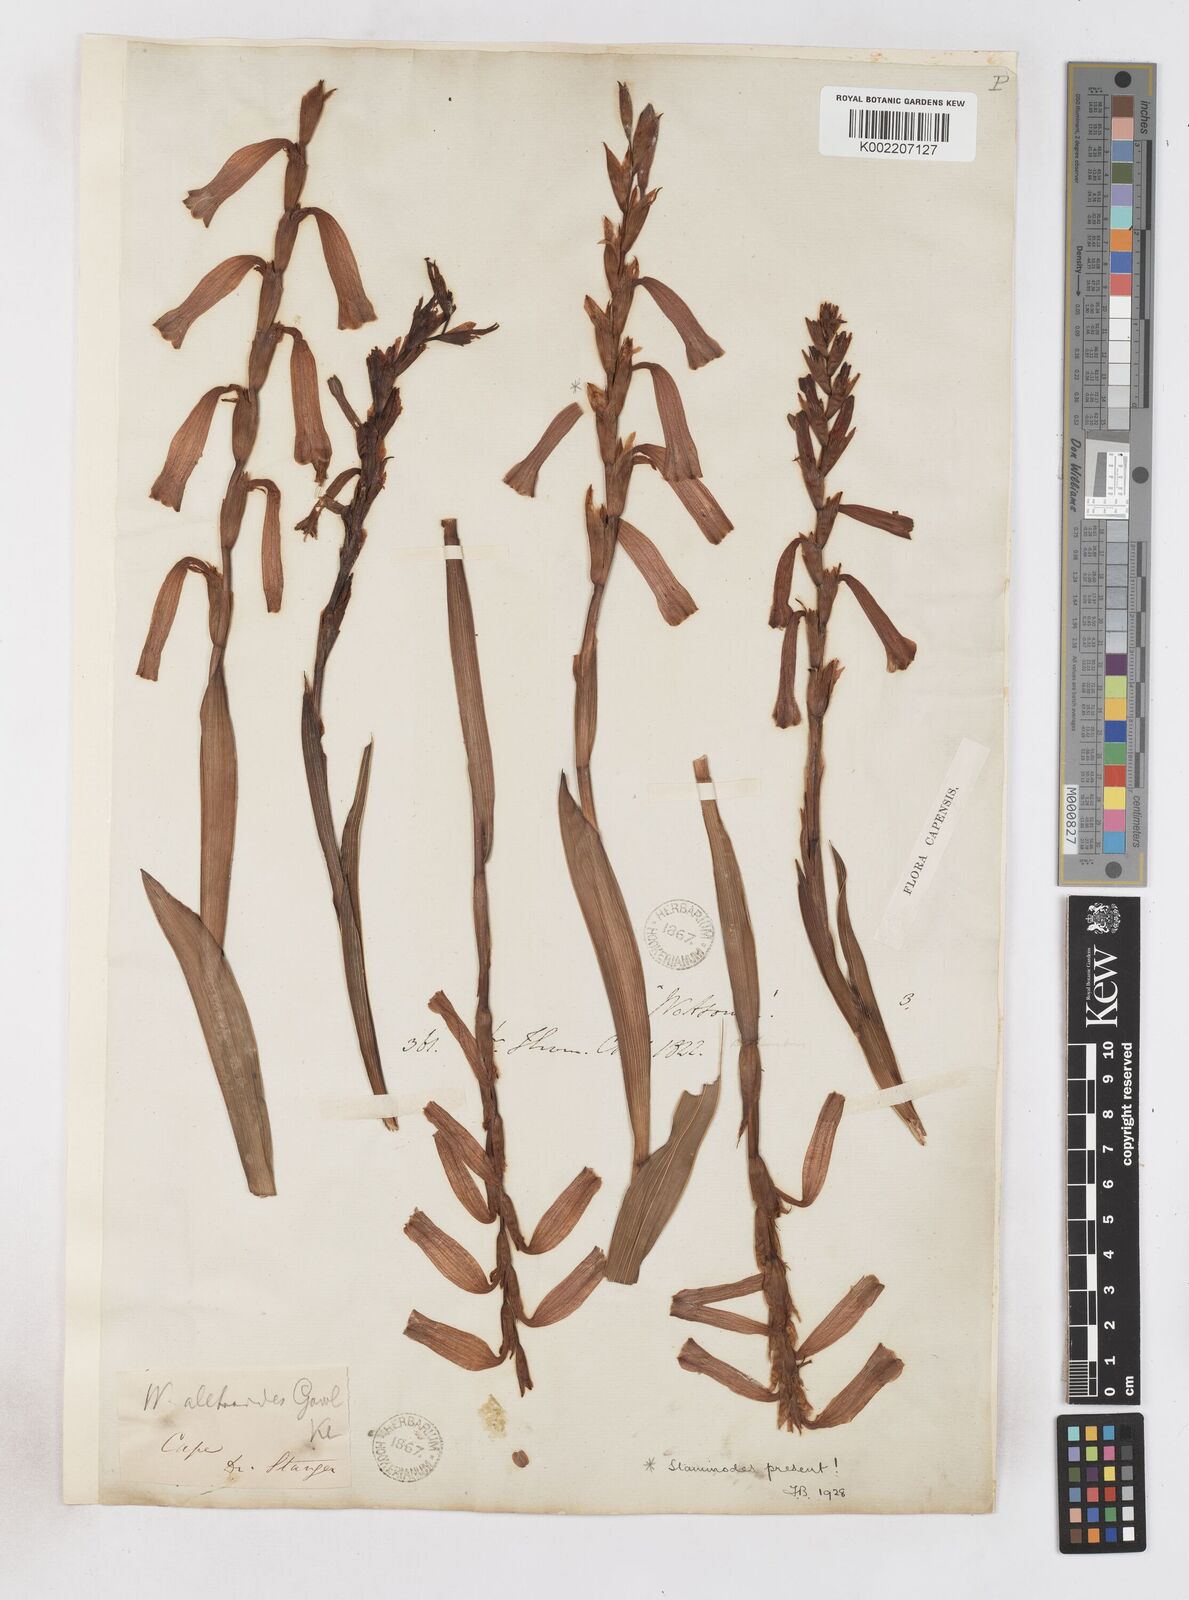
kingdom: Plantae
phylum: Tracheophyta
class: Liliopsida
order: Asparagales
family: Iridaceae
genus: Watsonia
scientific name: Watsonia aletroides
